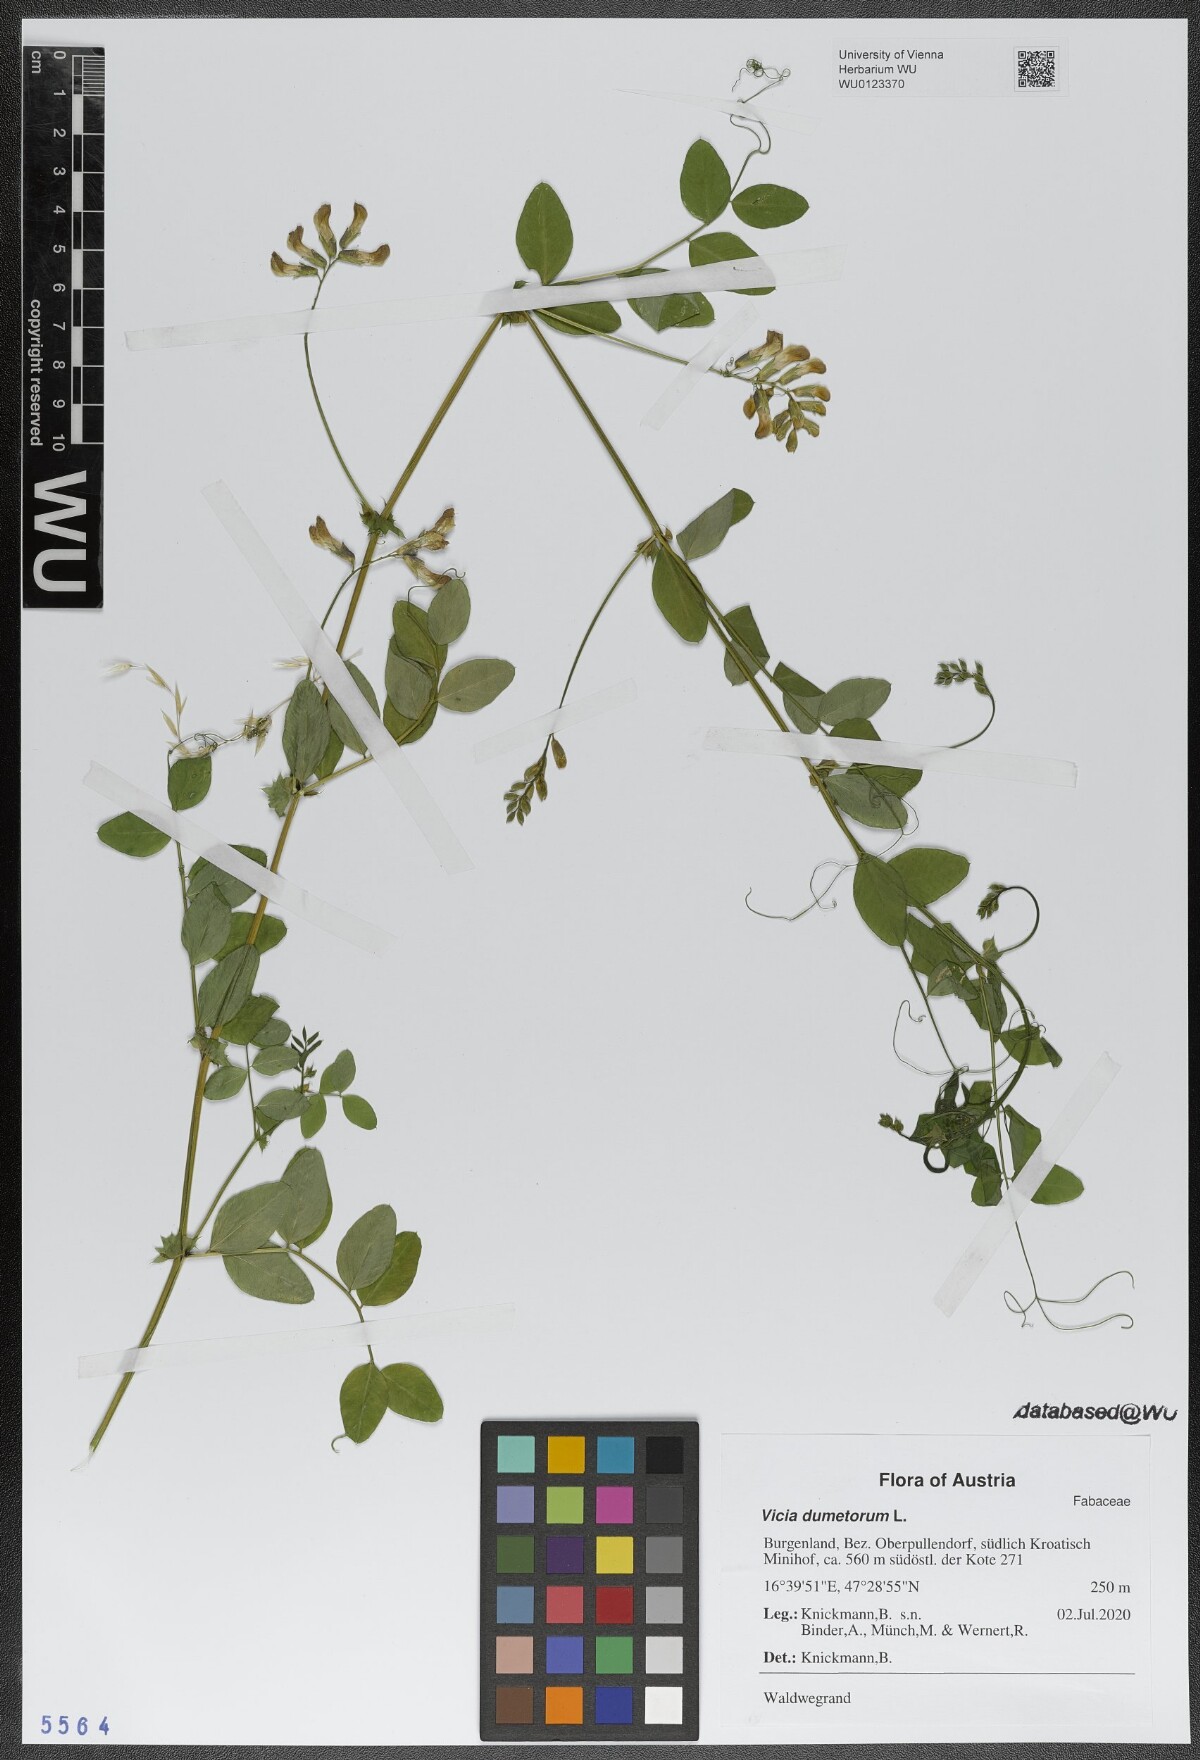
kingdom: Plantae
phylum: Tracheophyta
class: Magnoliopsida
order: Fabales
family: Fabaceae
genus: Vicia
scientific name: Vicia dumetorum
